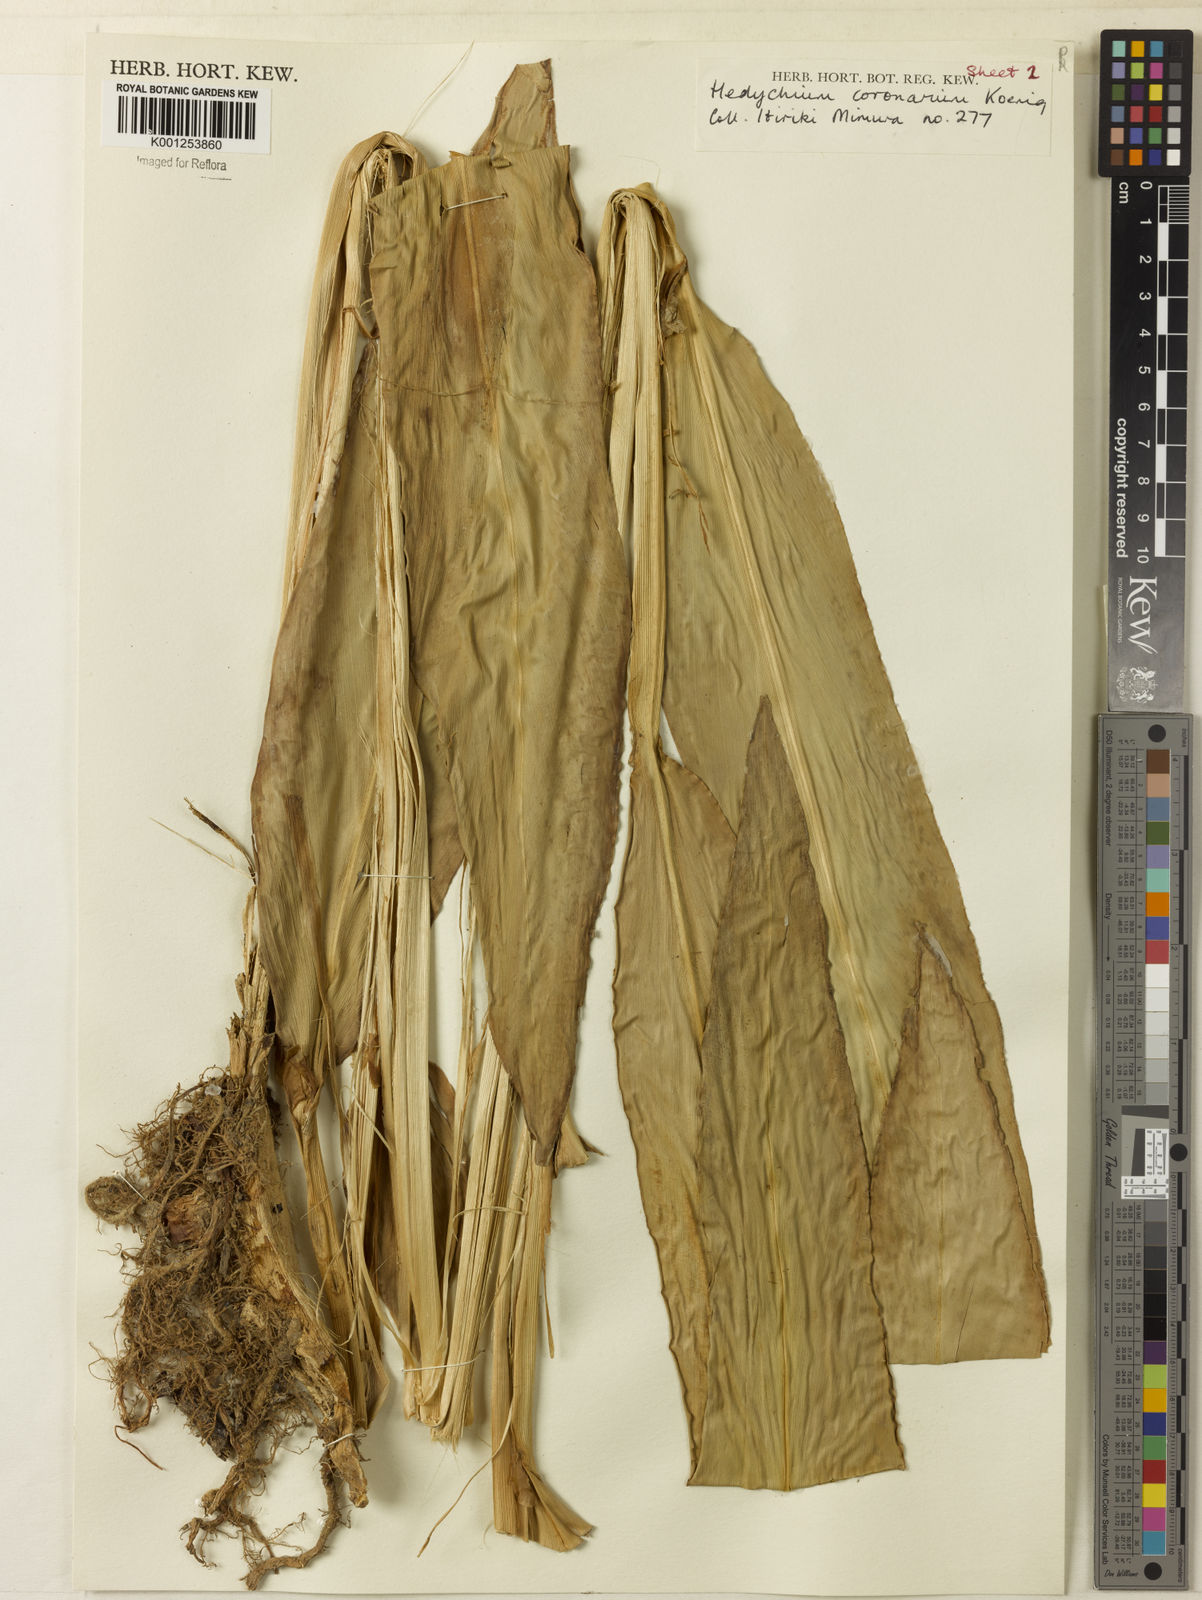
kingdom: Plantae
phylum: Tracheophyta
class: Liliopsida
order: Zingiberales
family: Zingiberaceae
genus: Hedychium
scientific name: Hedychium coronarium
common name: White garland-lily
